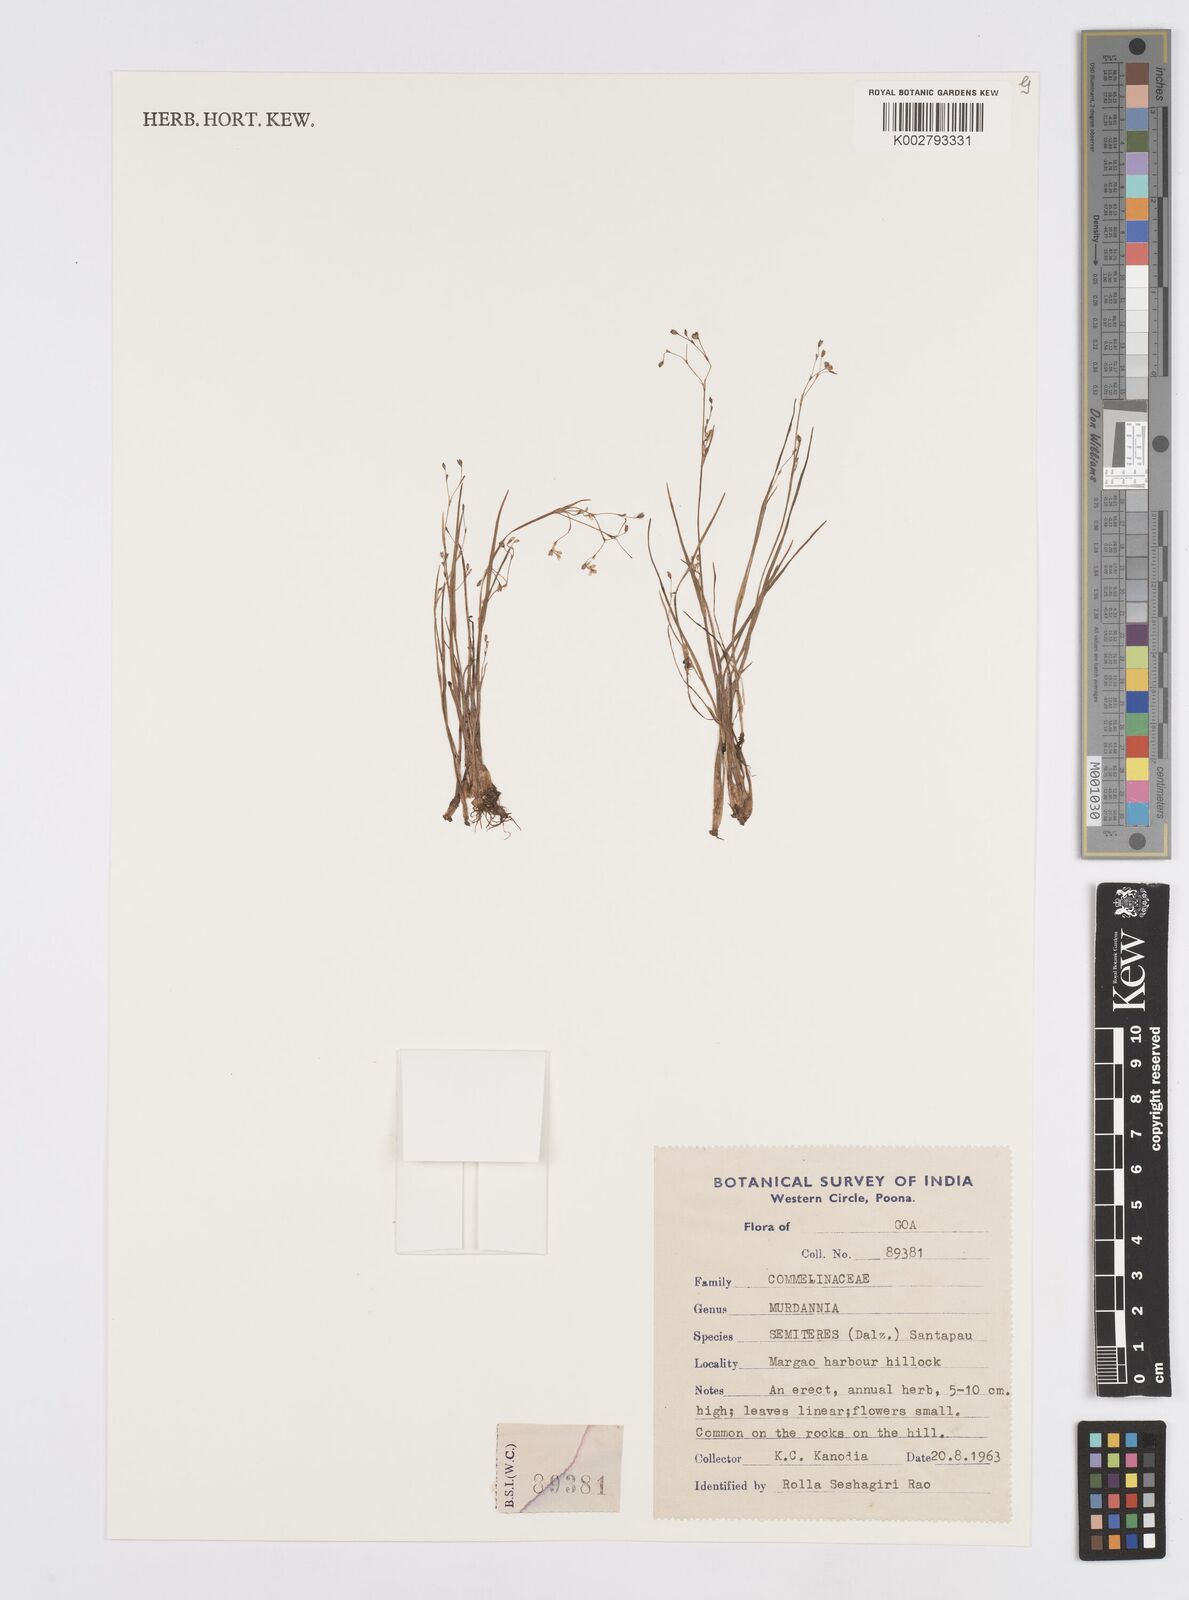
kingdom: Plantae
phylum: Tracheophyta
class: Liliopsida
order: Commelinales
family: Commelinaceae
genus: Murdannia
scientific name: Murdannia semiteres
